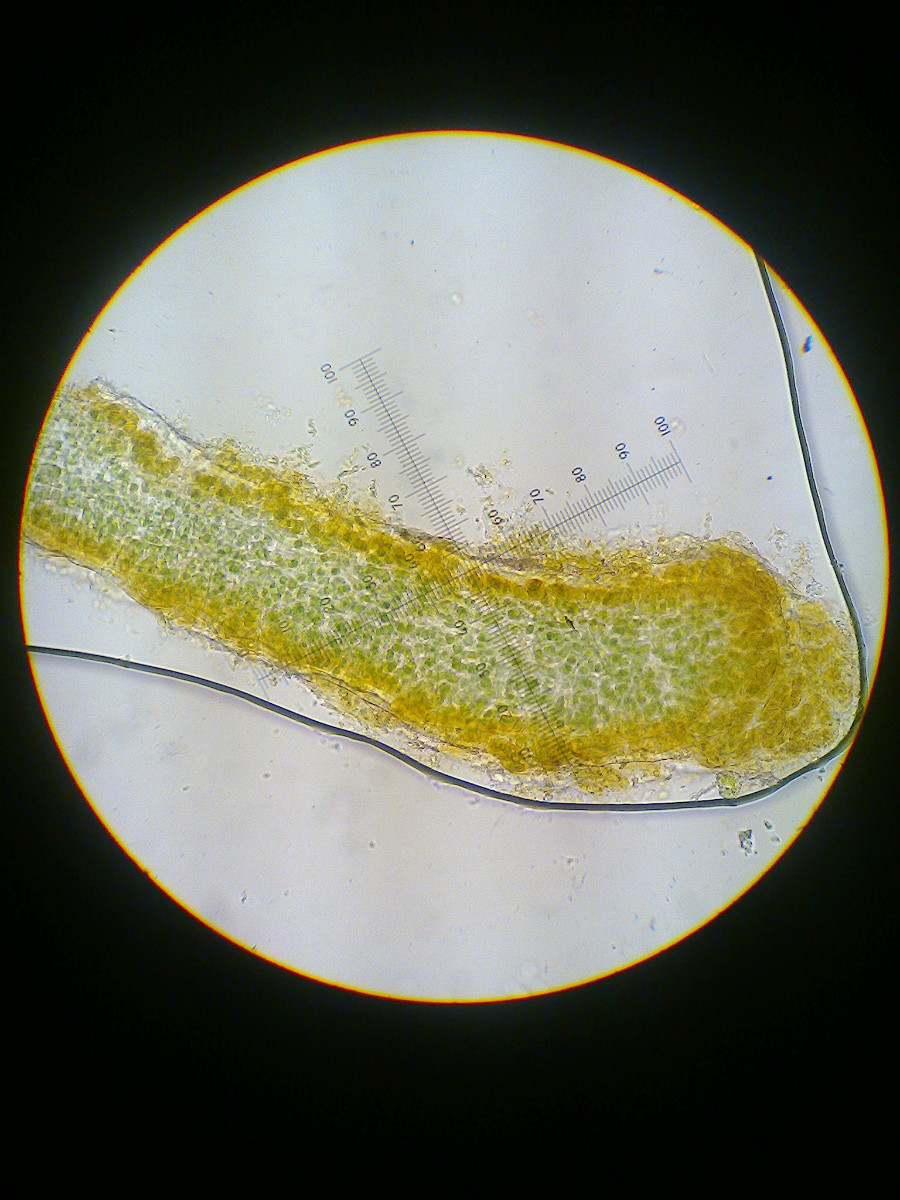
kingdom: Fungi
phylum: Ascomycota
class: Lecanoromycetes
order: Peltigerales
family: Collemataceae
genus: Blennothallia
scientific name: Blennothallia crispa
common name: kruset bævrelav
